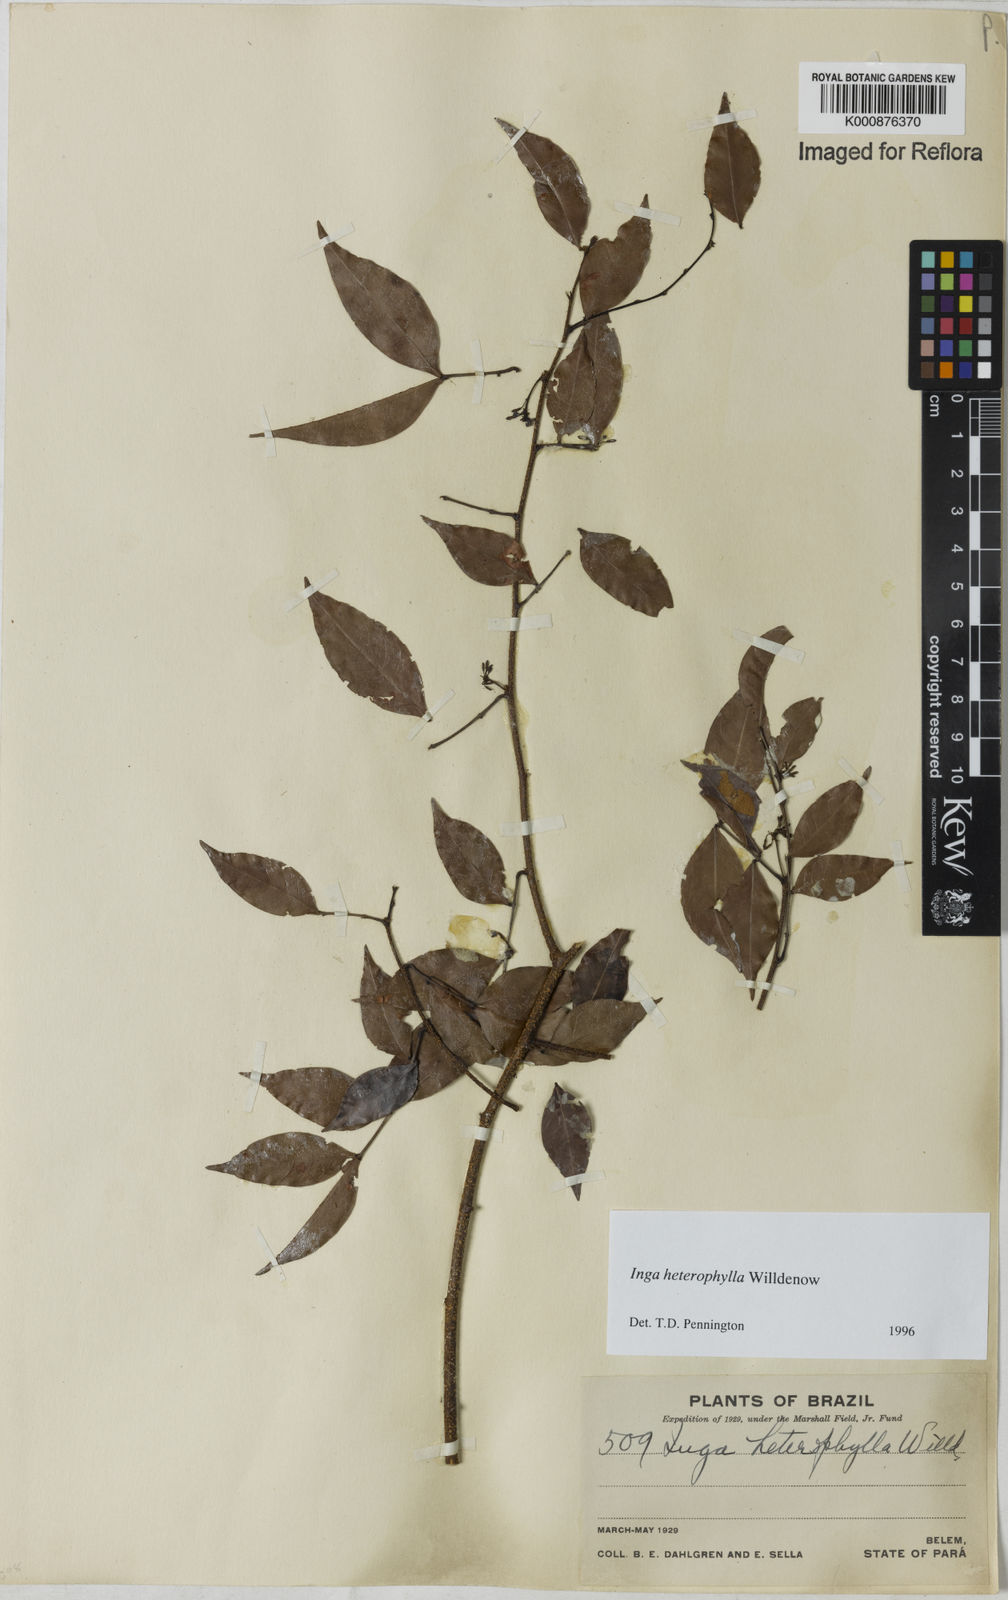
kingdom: Plantae
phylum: Tracheophyta
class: Magnoliopsida
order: Fabales
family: Fabaceae
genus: Inga
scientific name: Inga heterophylla
